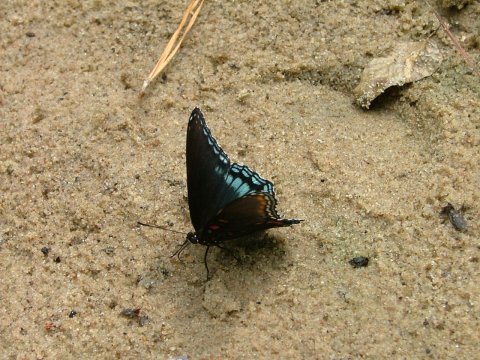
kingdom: Animalia
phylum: Arthropoda
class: Insecta
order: Lepidoptera
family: Nymphalidae
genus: Limenitis
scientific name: Limenitis arthemis
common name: Red-spotted Admiral
